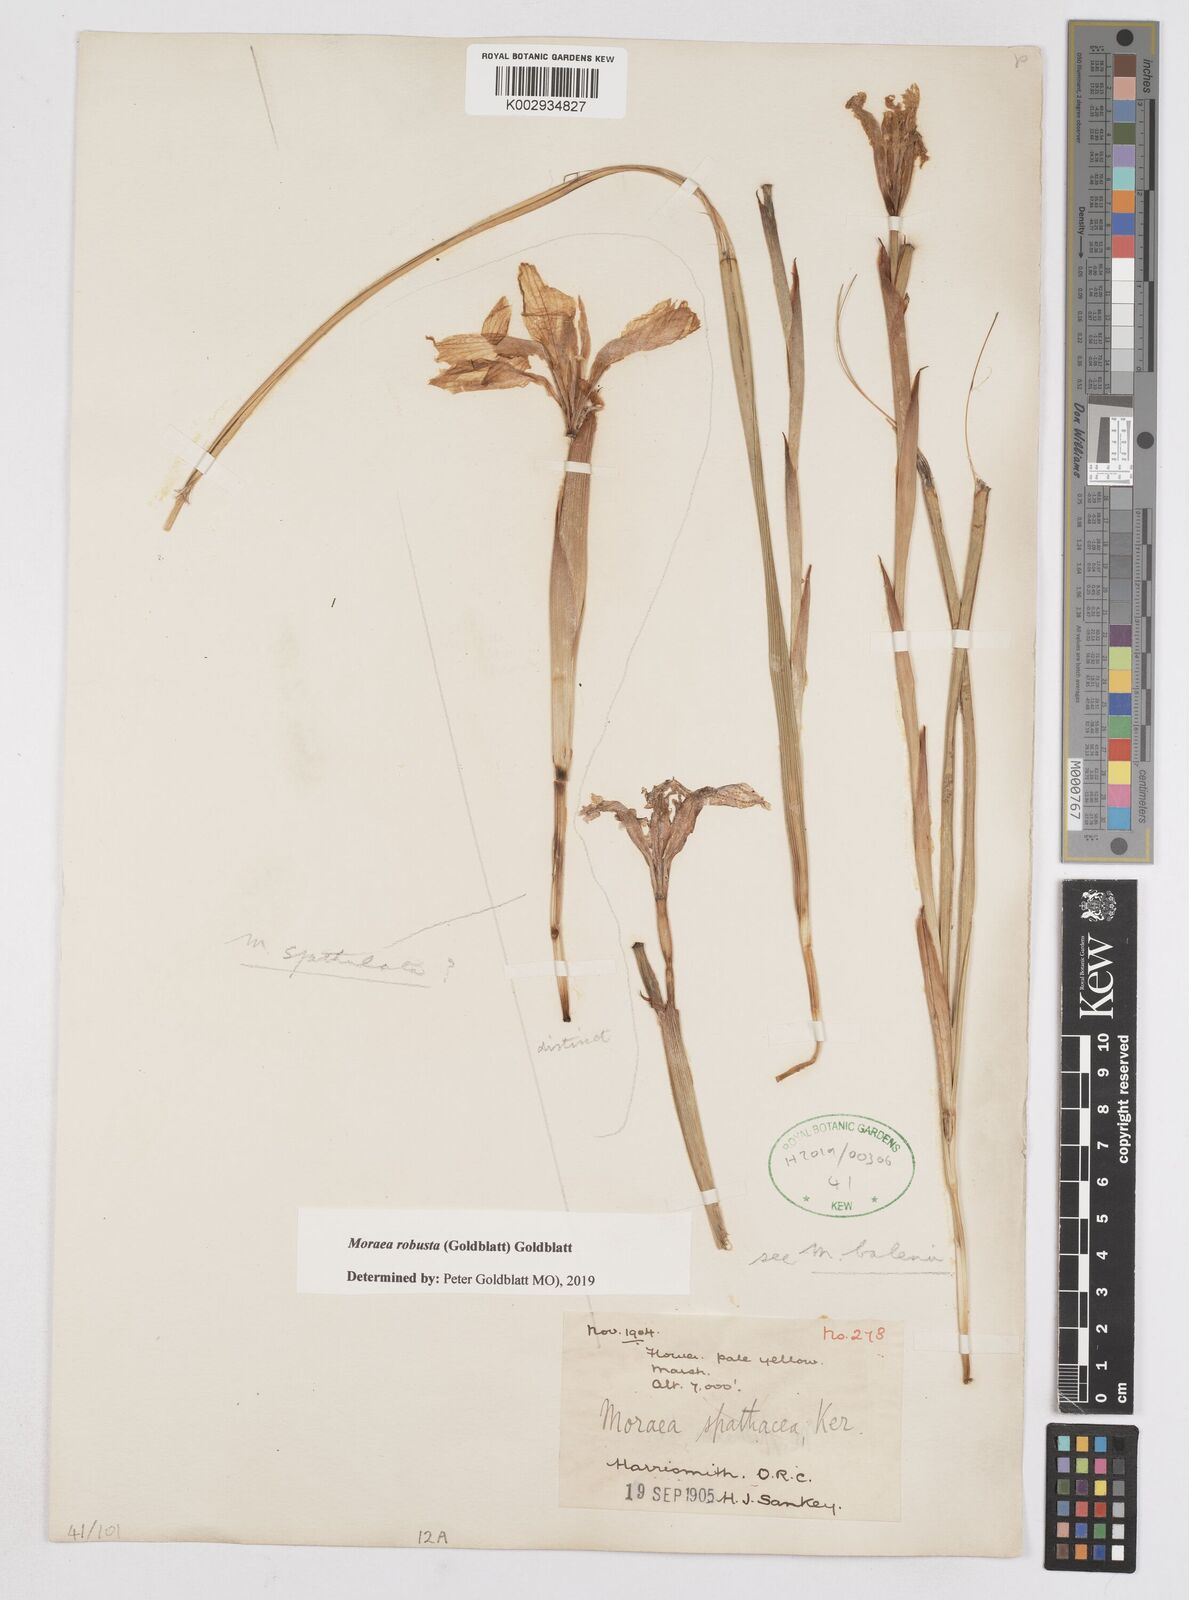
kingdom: Plantae
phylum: Tracheophyta
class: Liliopsida
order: Asparagales
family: Iridaceae
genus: Moraea
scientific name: Moraea robusta
